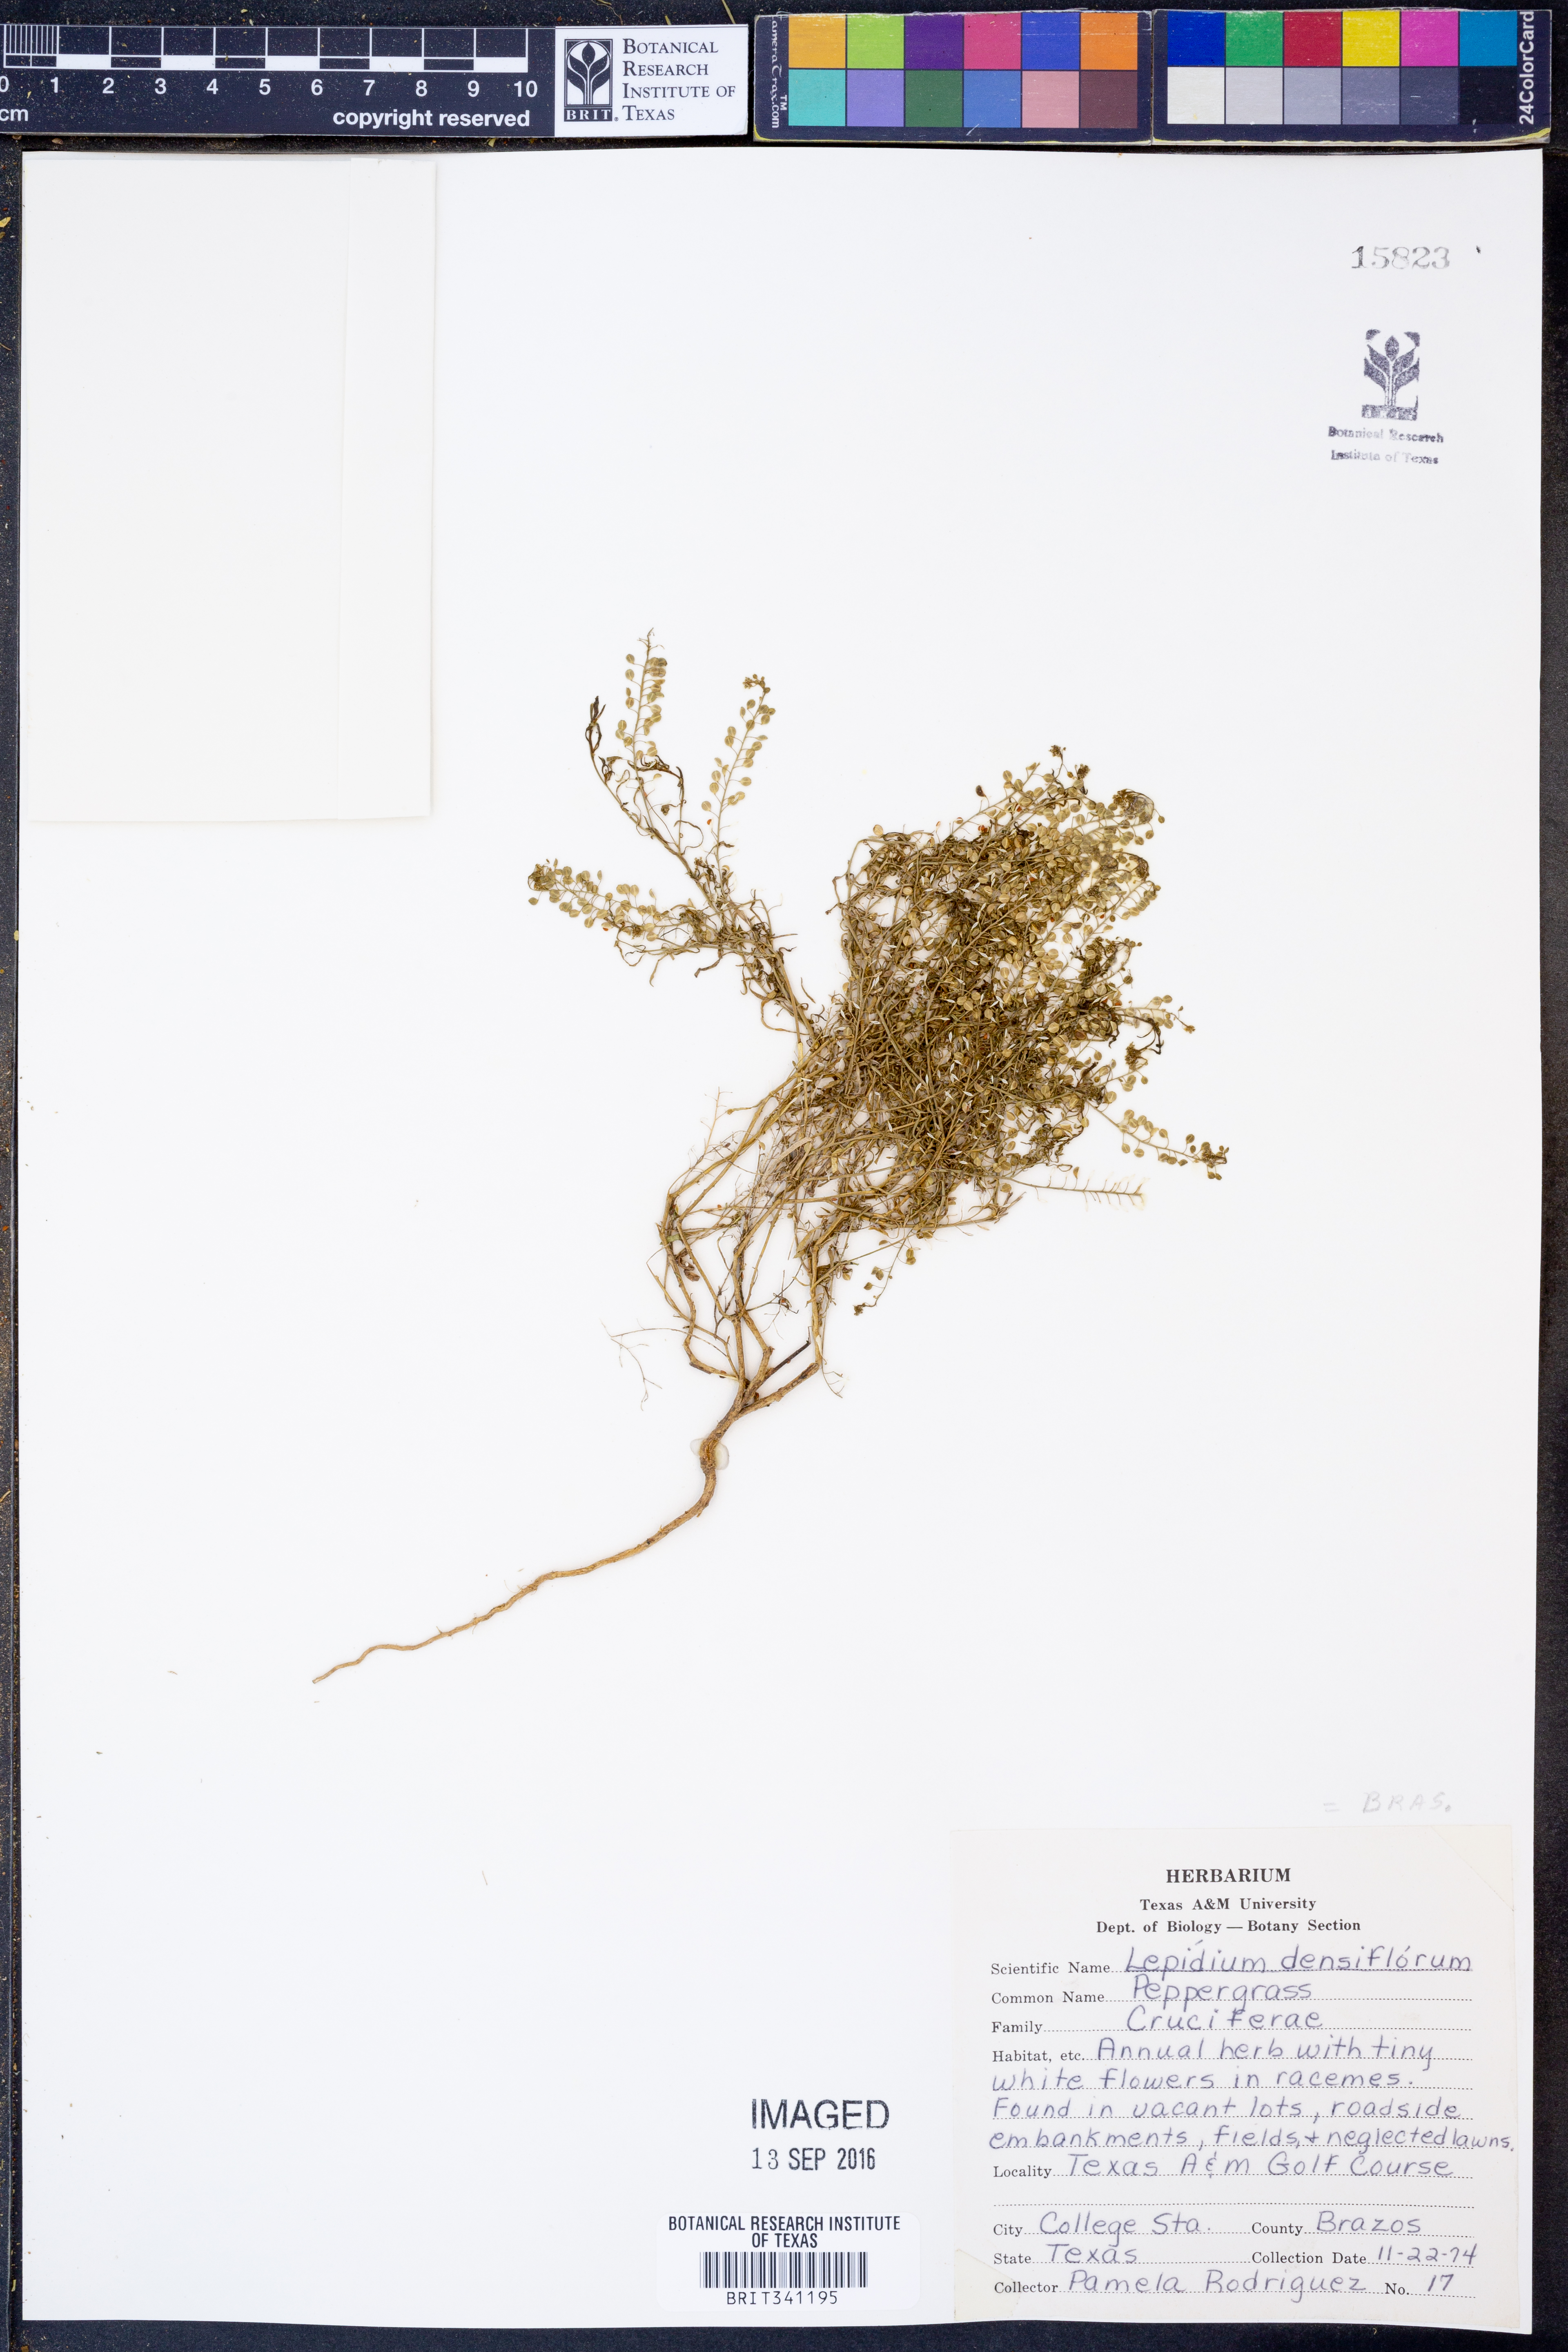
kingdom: Plantae
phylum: Tracheophyta
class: Magnoliopsida
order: Brassicales
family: Brassicaceae
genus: Lepidium
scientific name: Lepidium densiflorum
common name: Miner's pepperwort
